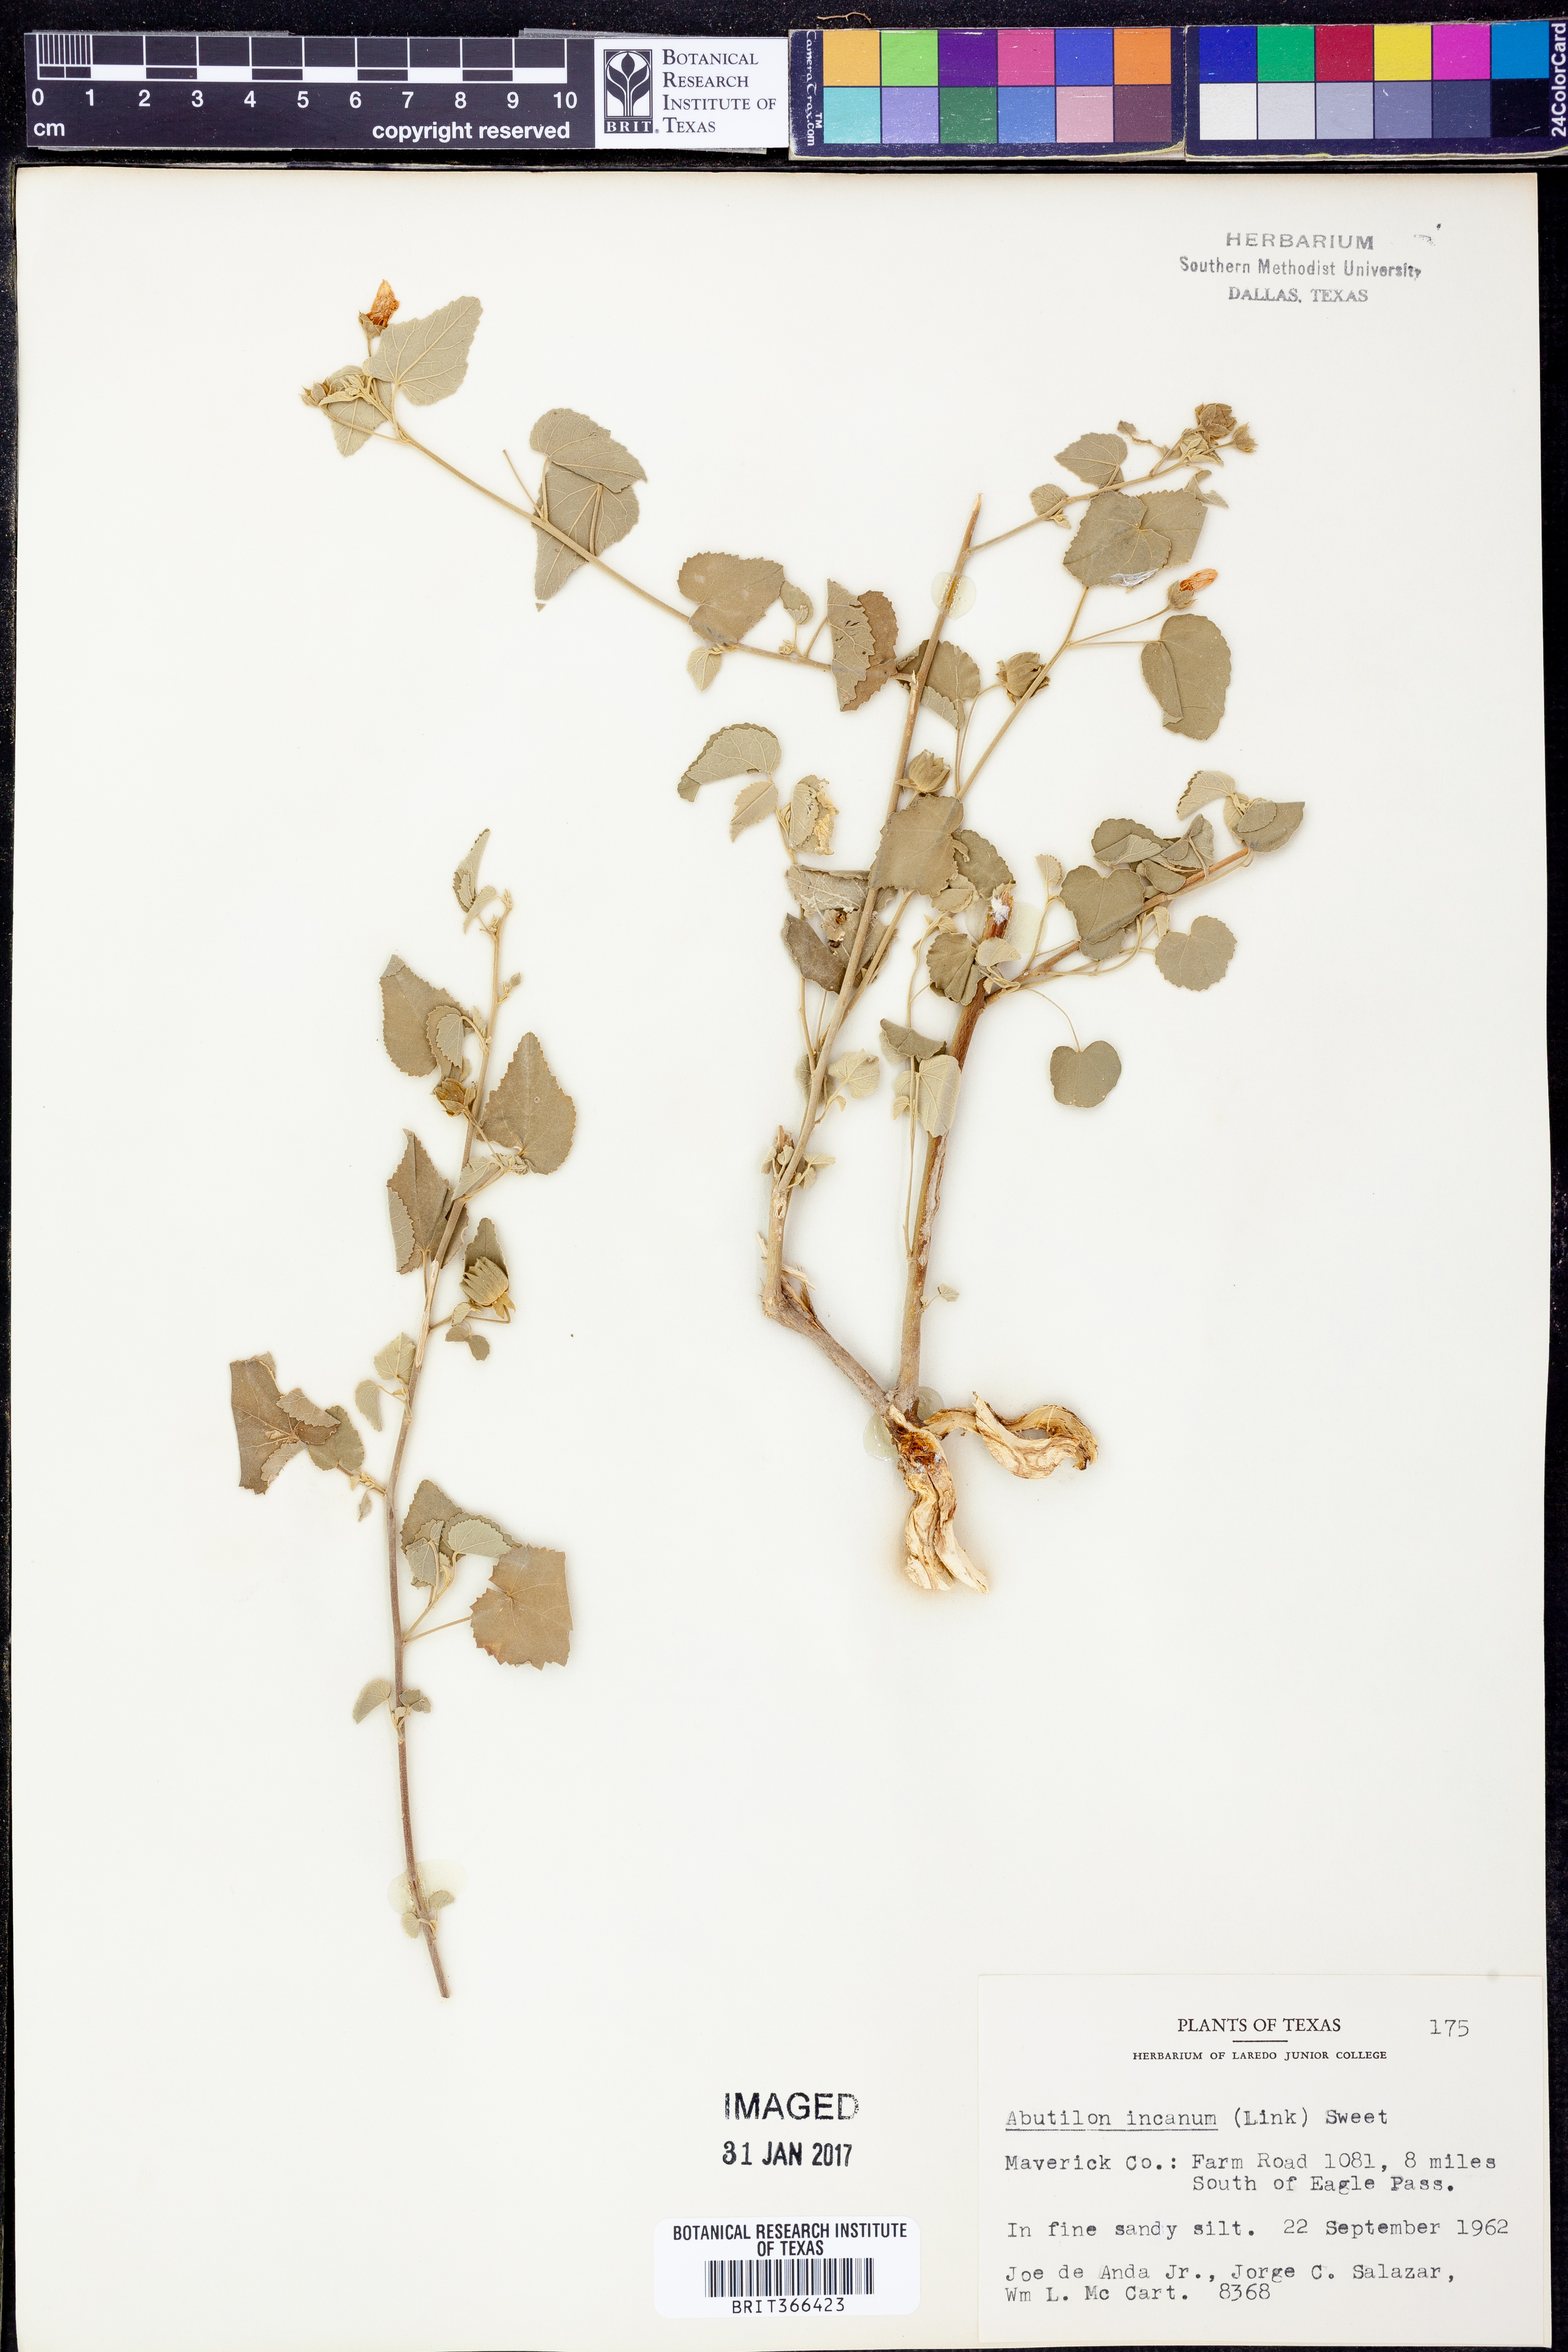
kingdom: Plantae
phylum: Tracheophyta
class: Magnoliopsida
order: Malvales
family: Malvaceae
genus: Abutilon
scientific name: Abutilon incanum
